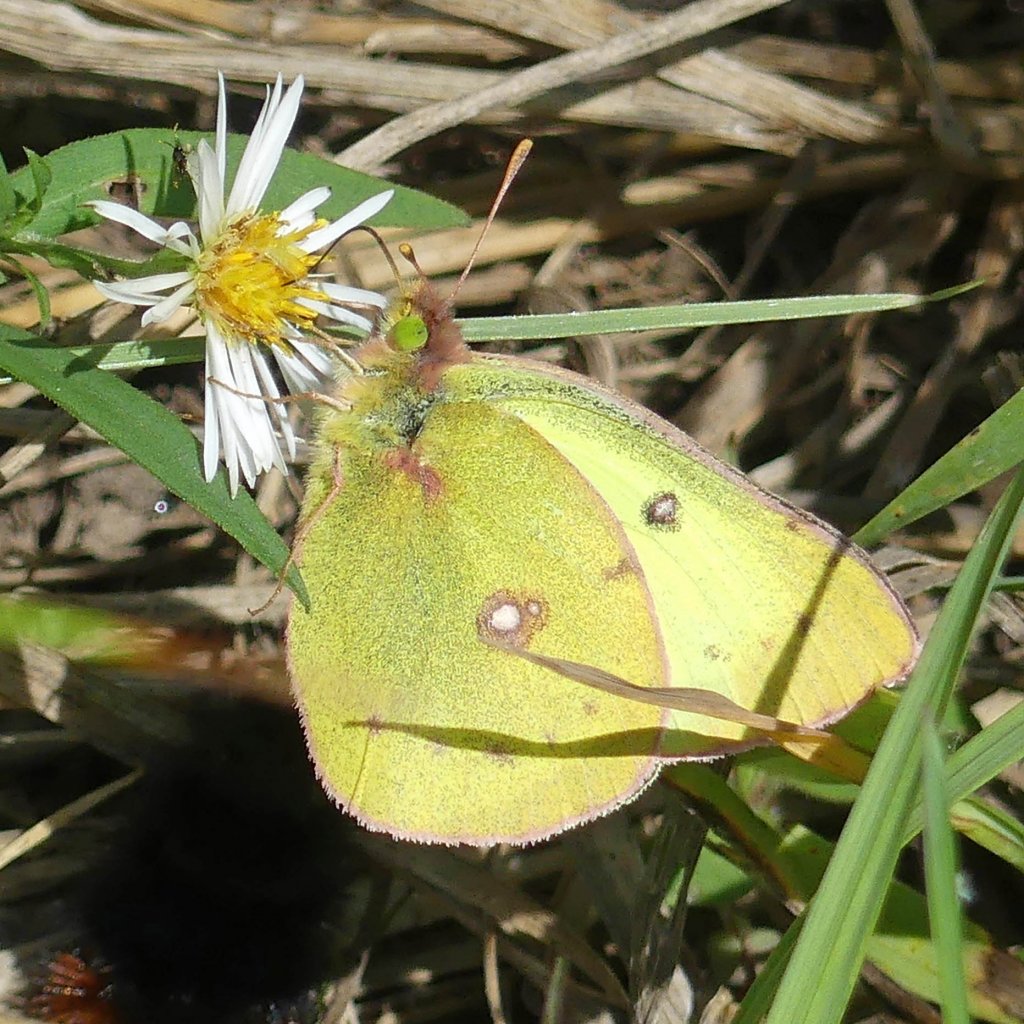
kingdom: Animalia
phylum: Arthropoda
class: Insecta
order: Lepidoptera
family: Pieridae
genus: Colias
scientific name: Colias philodice
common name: Clouded Sulphur
